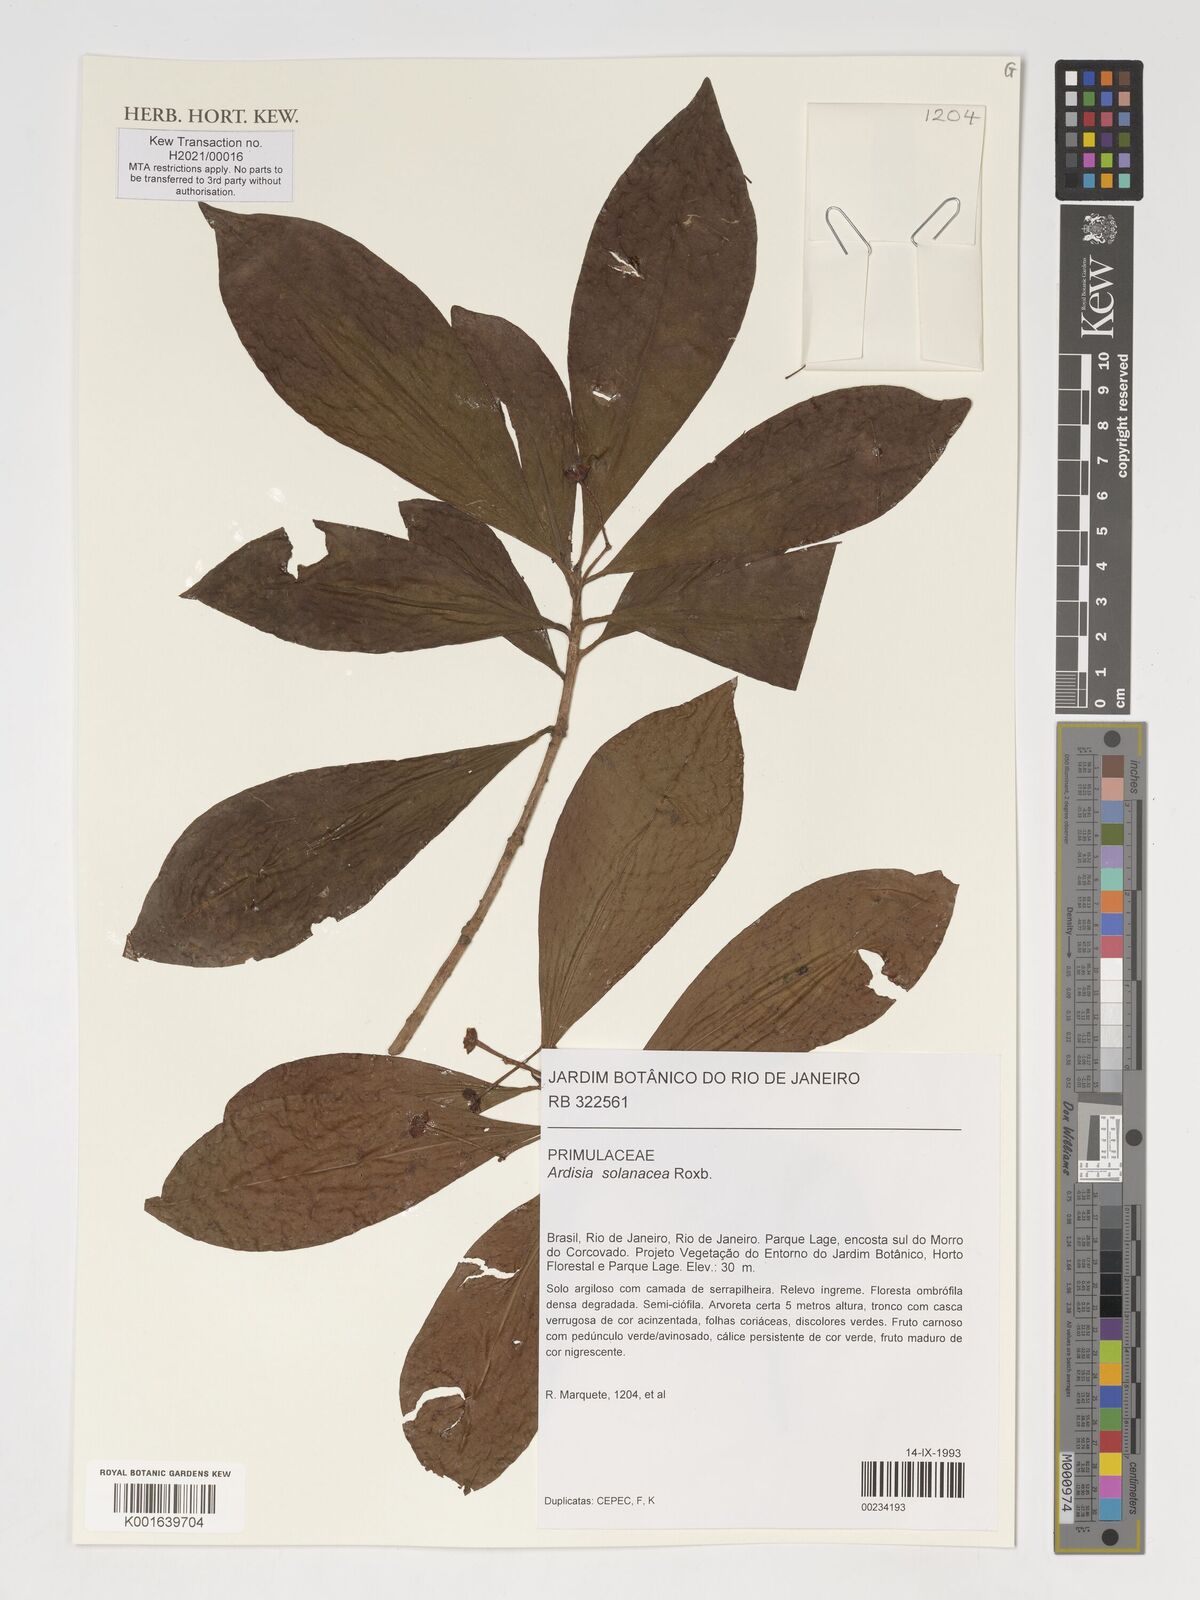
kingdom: Plantae
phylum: Tracheophyta
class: Magnoliopsida
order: Ericales
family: Primulaceae
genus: Ardisia
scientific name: Ardisia humilis
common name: Low shoebutton
